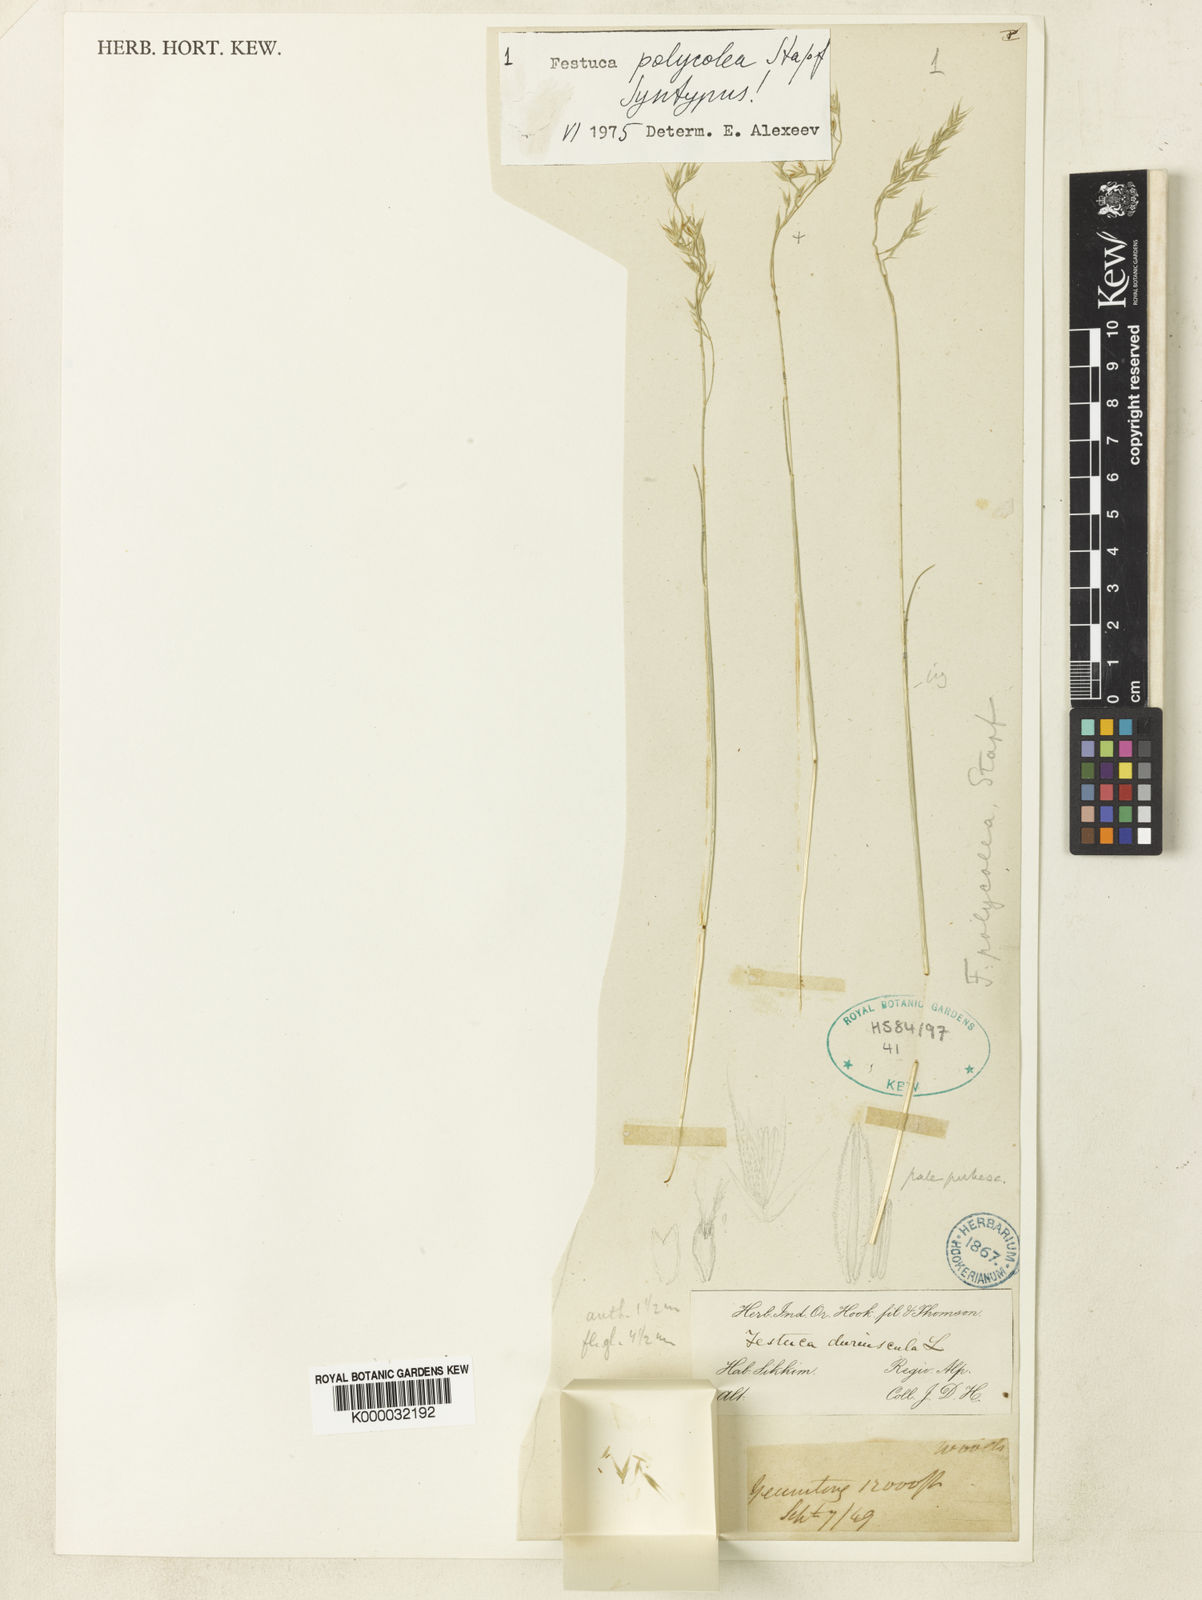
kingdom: Plantae
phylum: Tracheophyta
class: Liliopsida
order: Poales
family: Poaceae
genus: Festuca
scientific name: Festuca polycolea
